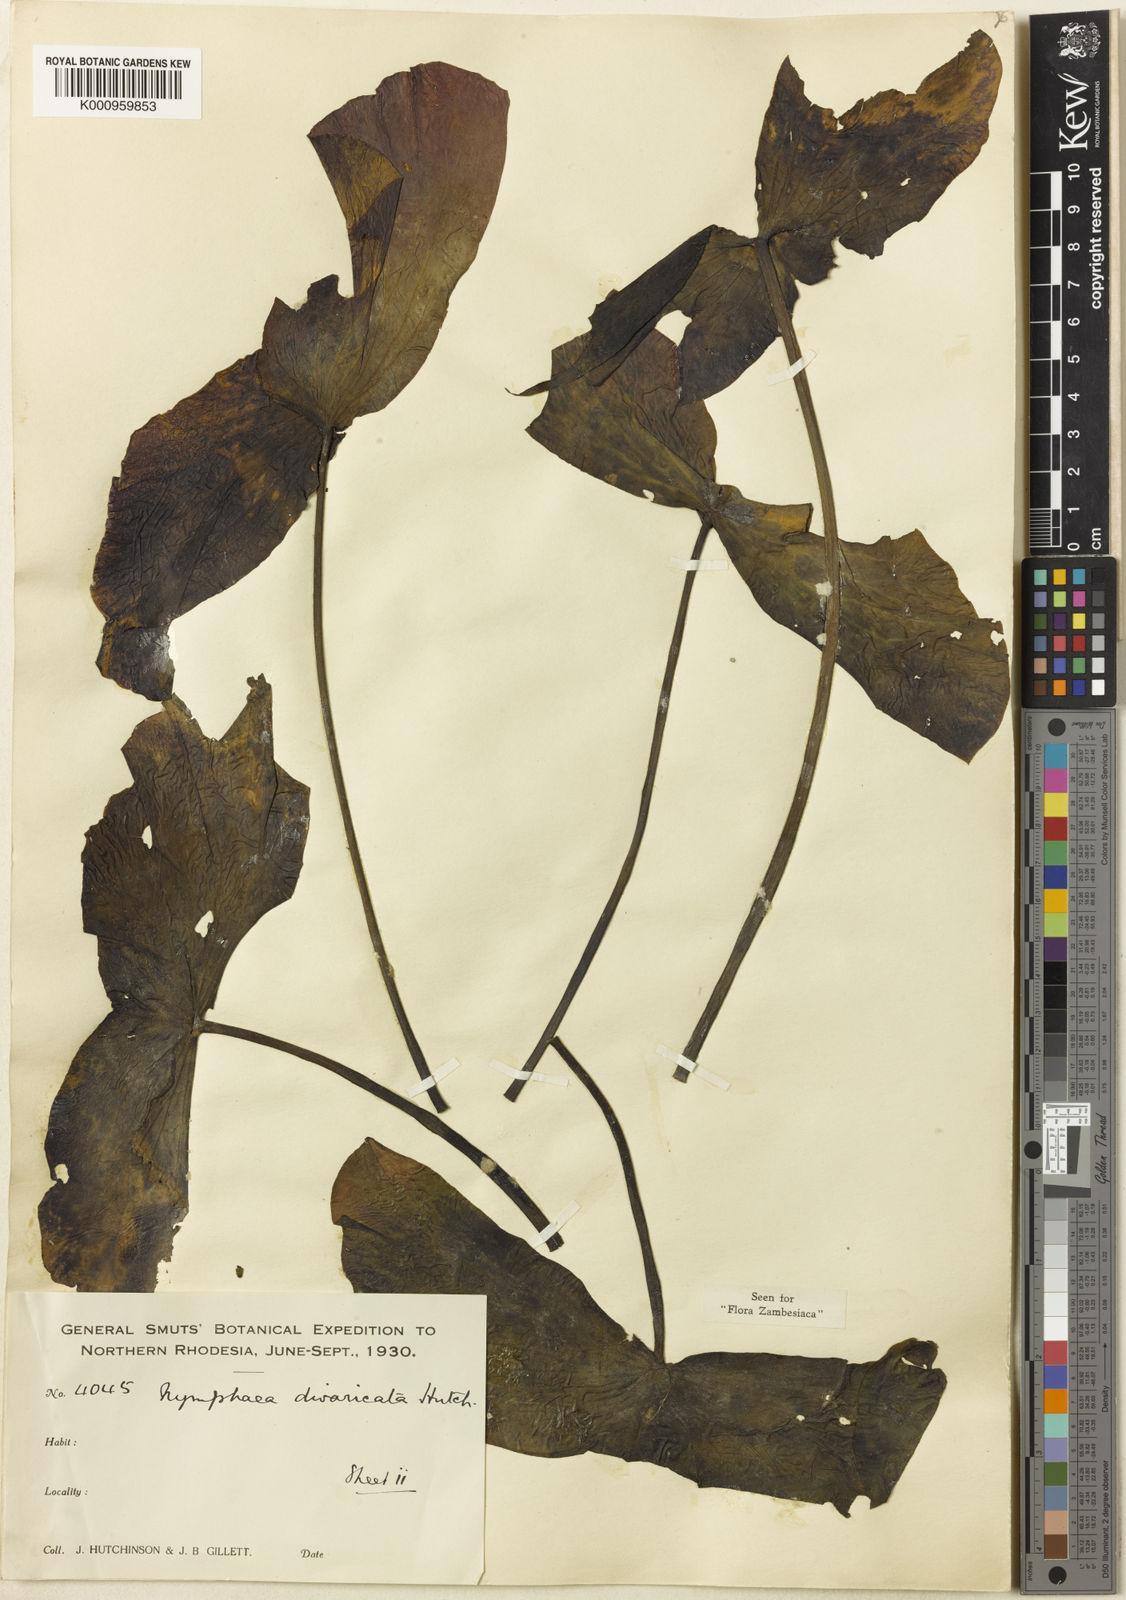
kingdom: Plantae
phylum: Tracheophyta
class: Magnoliopsida
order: Nymphaeales
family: Nymphaeaceae
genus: Nymphaea
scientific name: Nymphaea divaricata
